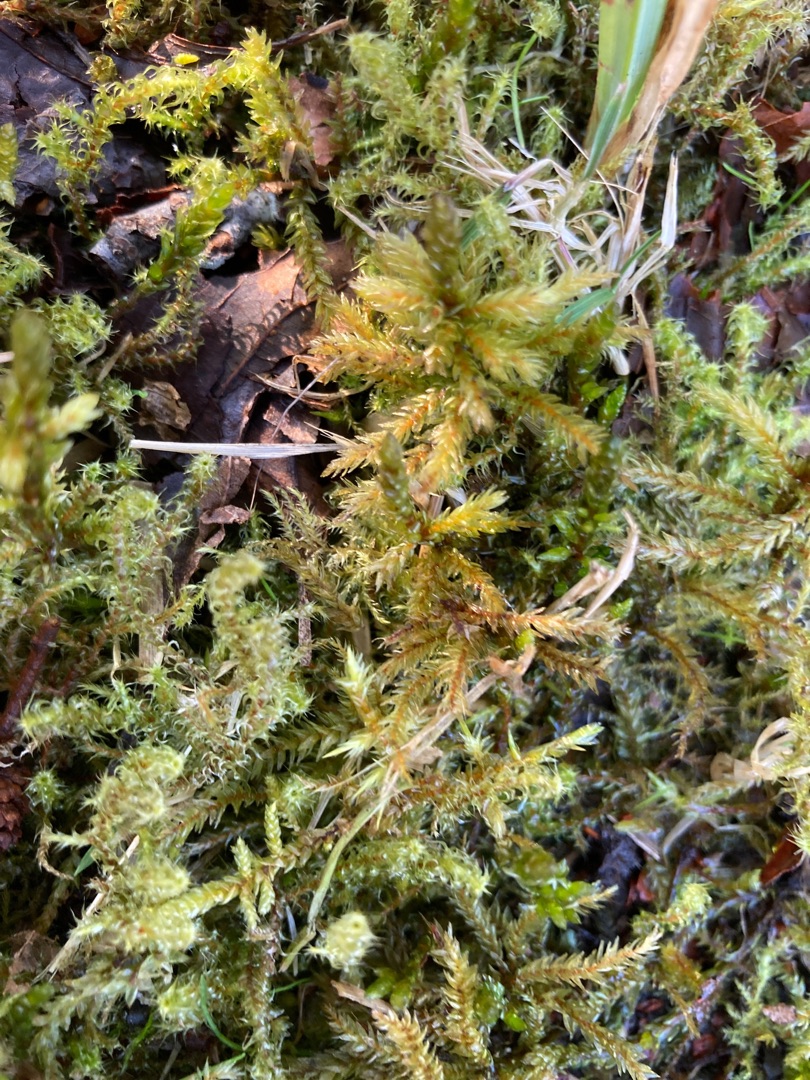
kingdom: Plantae
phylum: Bryophyta
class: Bryopsida
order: Hypnales
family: Climaciaceae
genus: Climacium
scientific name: Climacium dendroides
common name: Stor engkost
